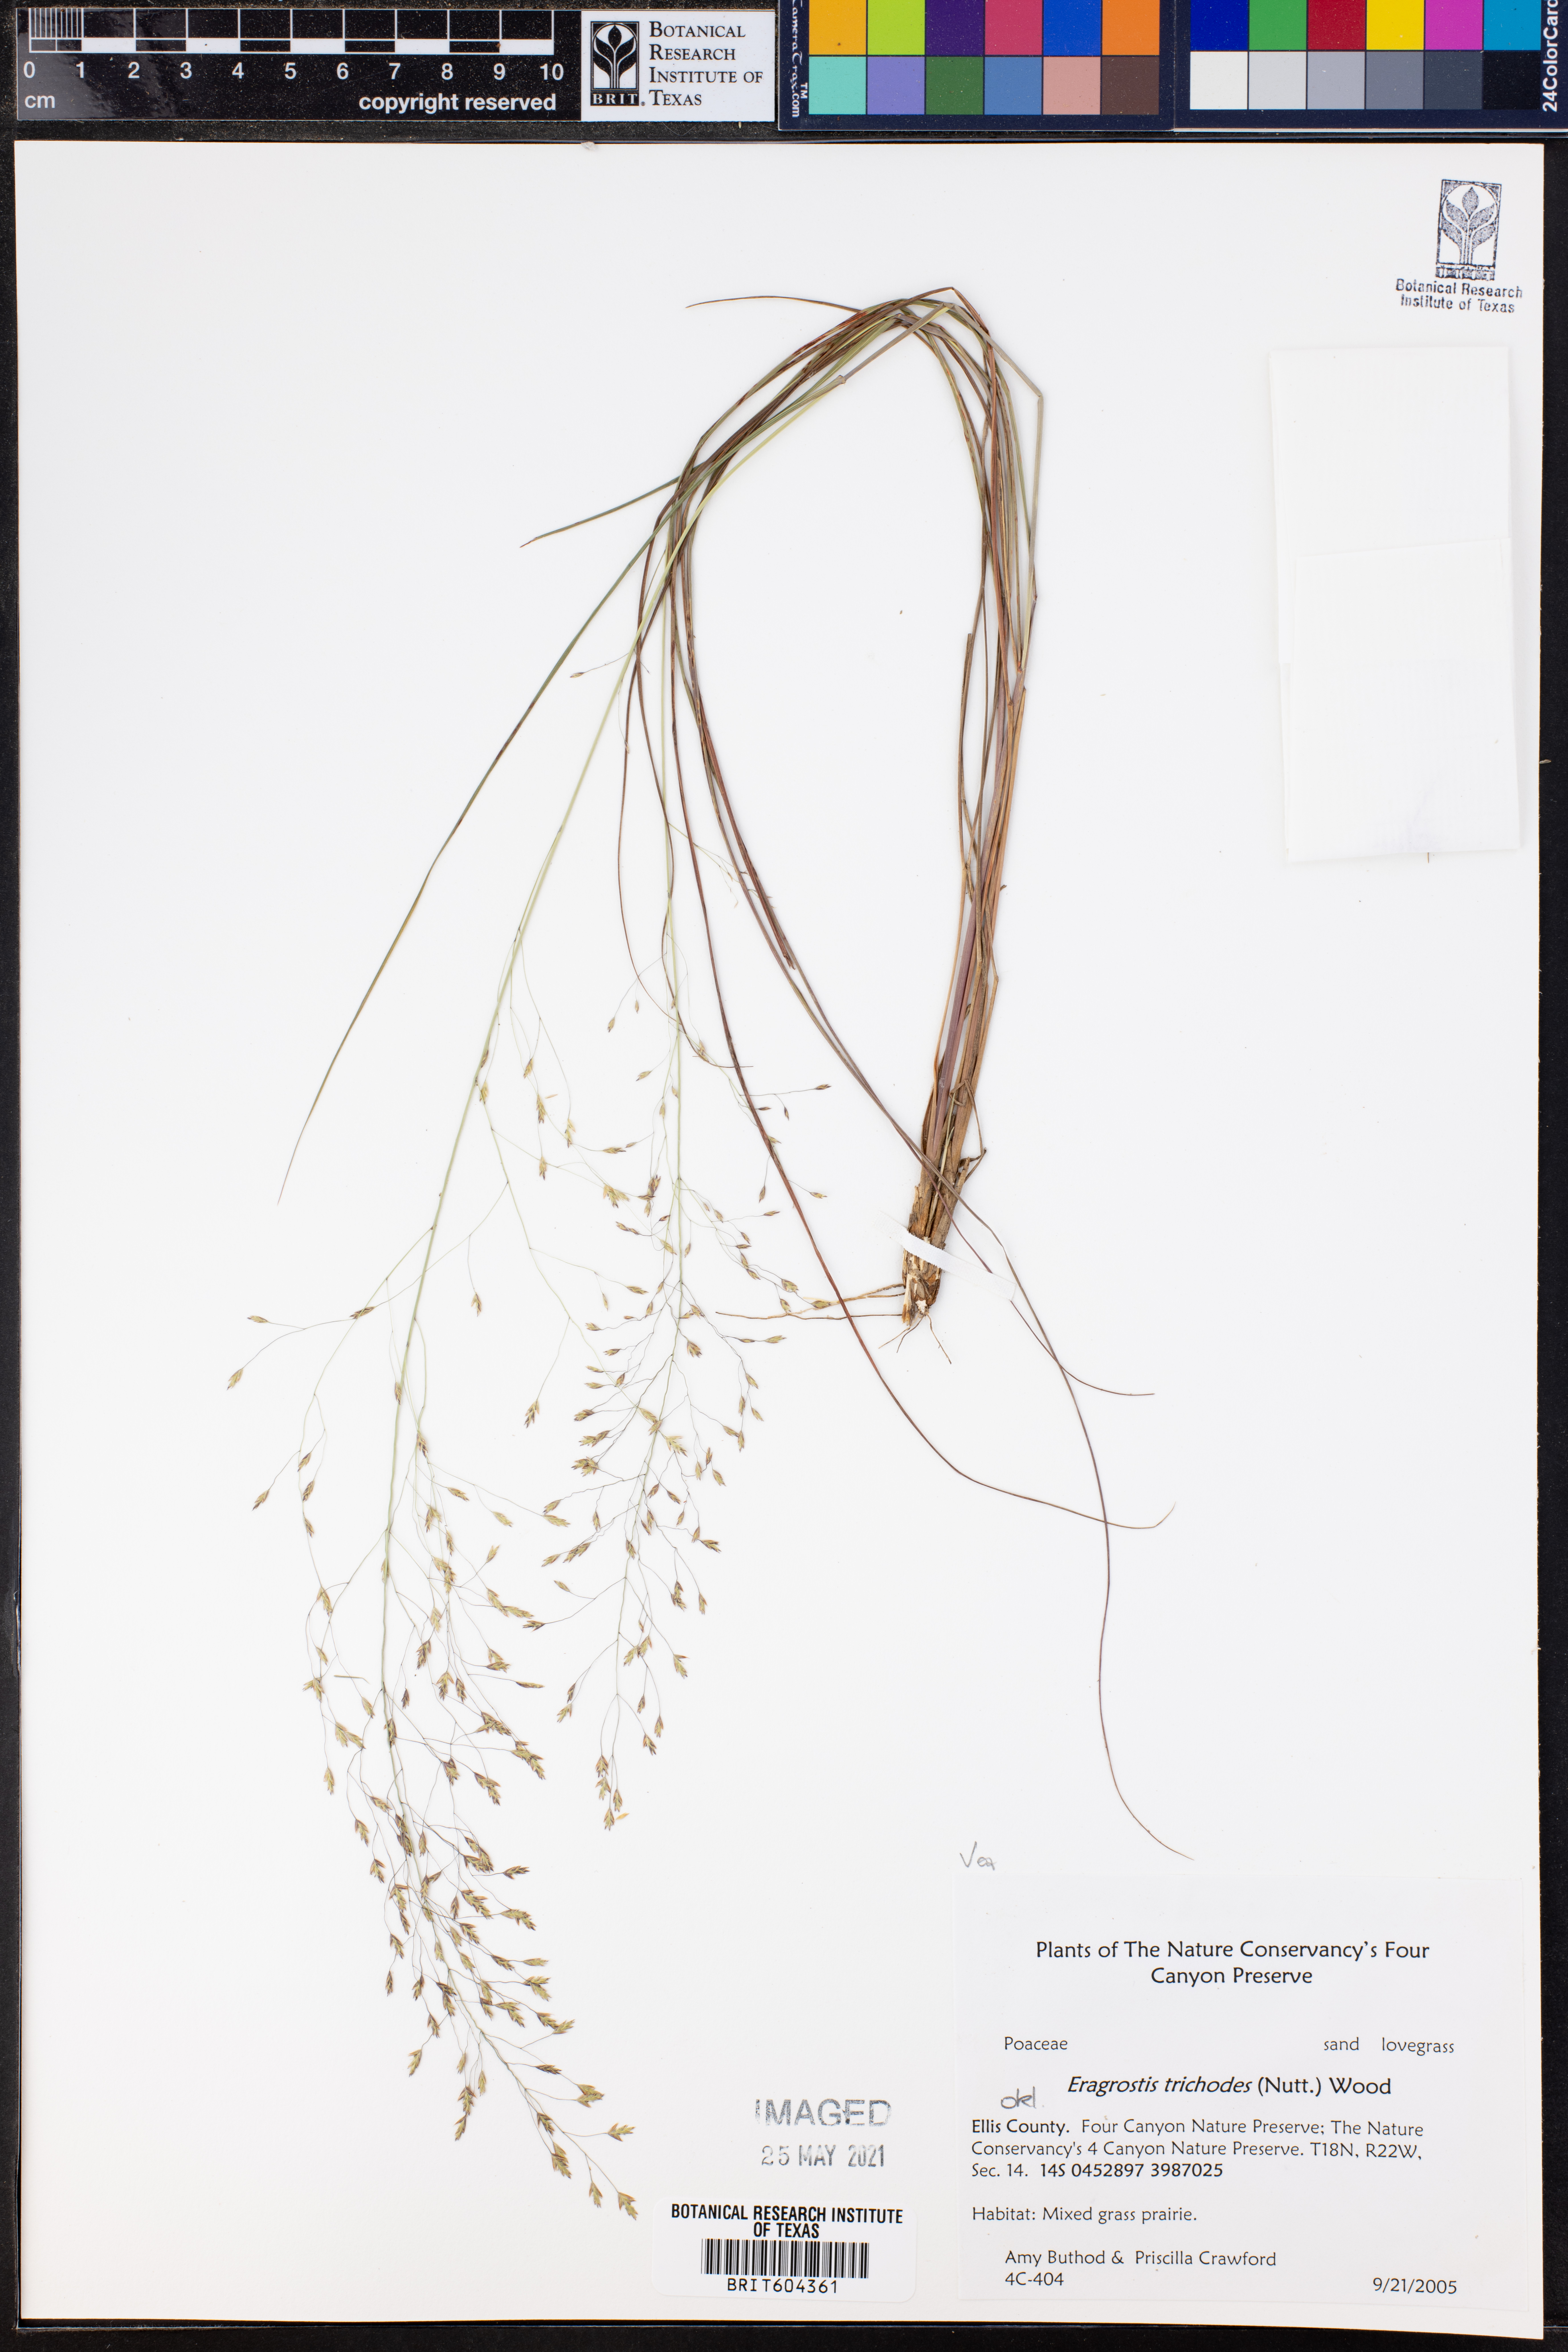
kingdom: Plantae
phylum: Tracheophyta
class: Liliopsida
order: Poales
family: Poaceae
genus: Eragrostis
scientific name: Eragrostis trichodes
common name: Sand love grass
